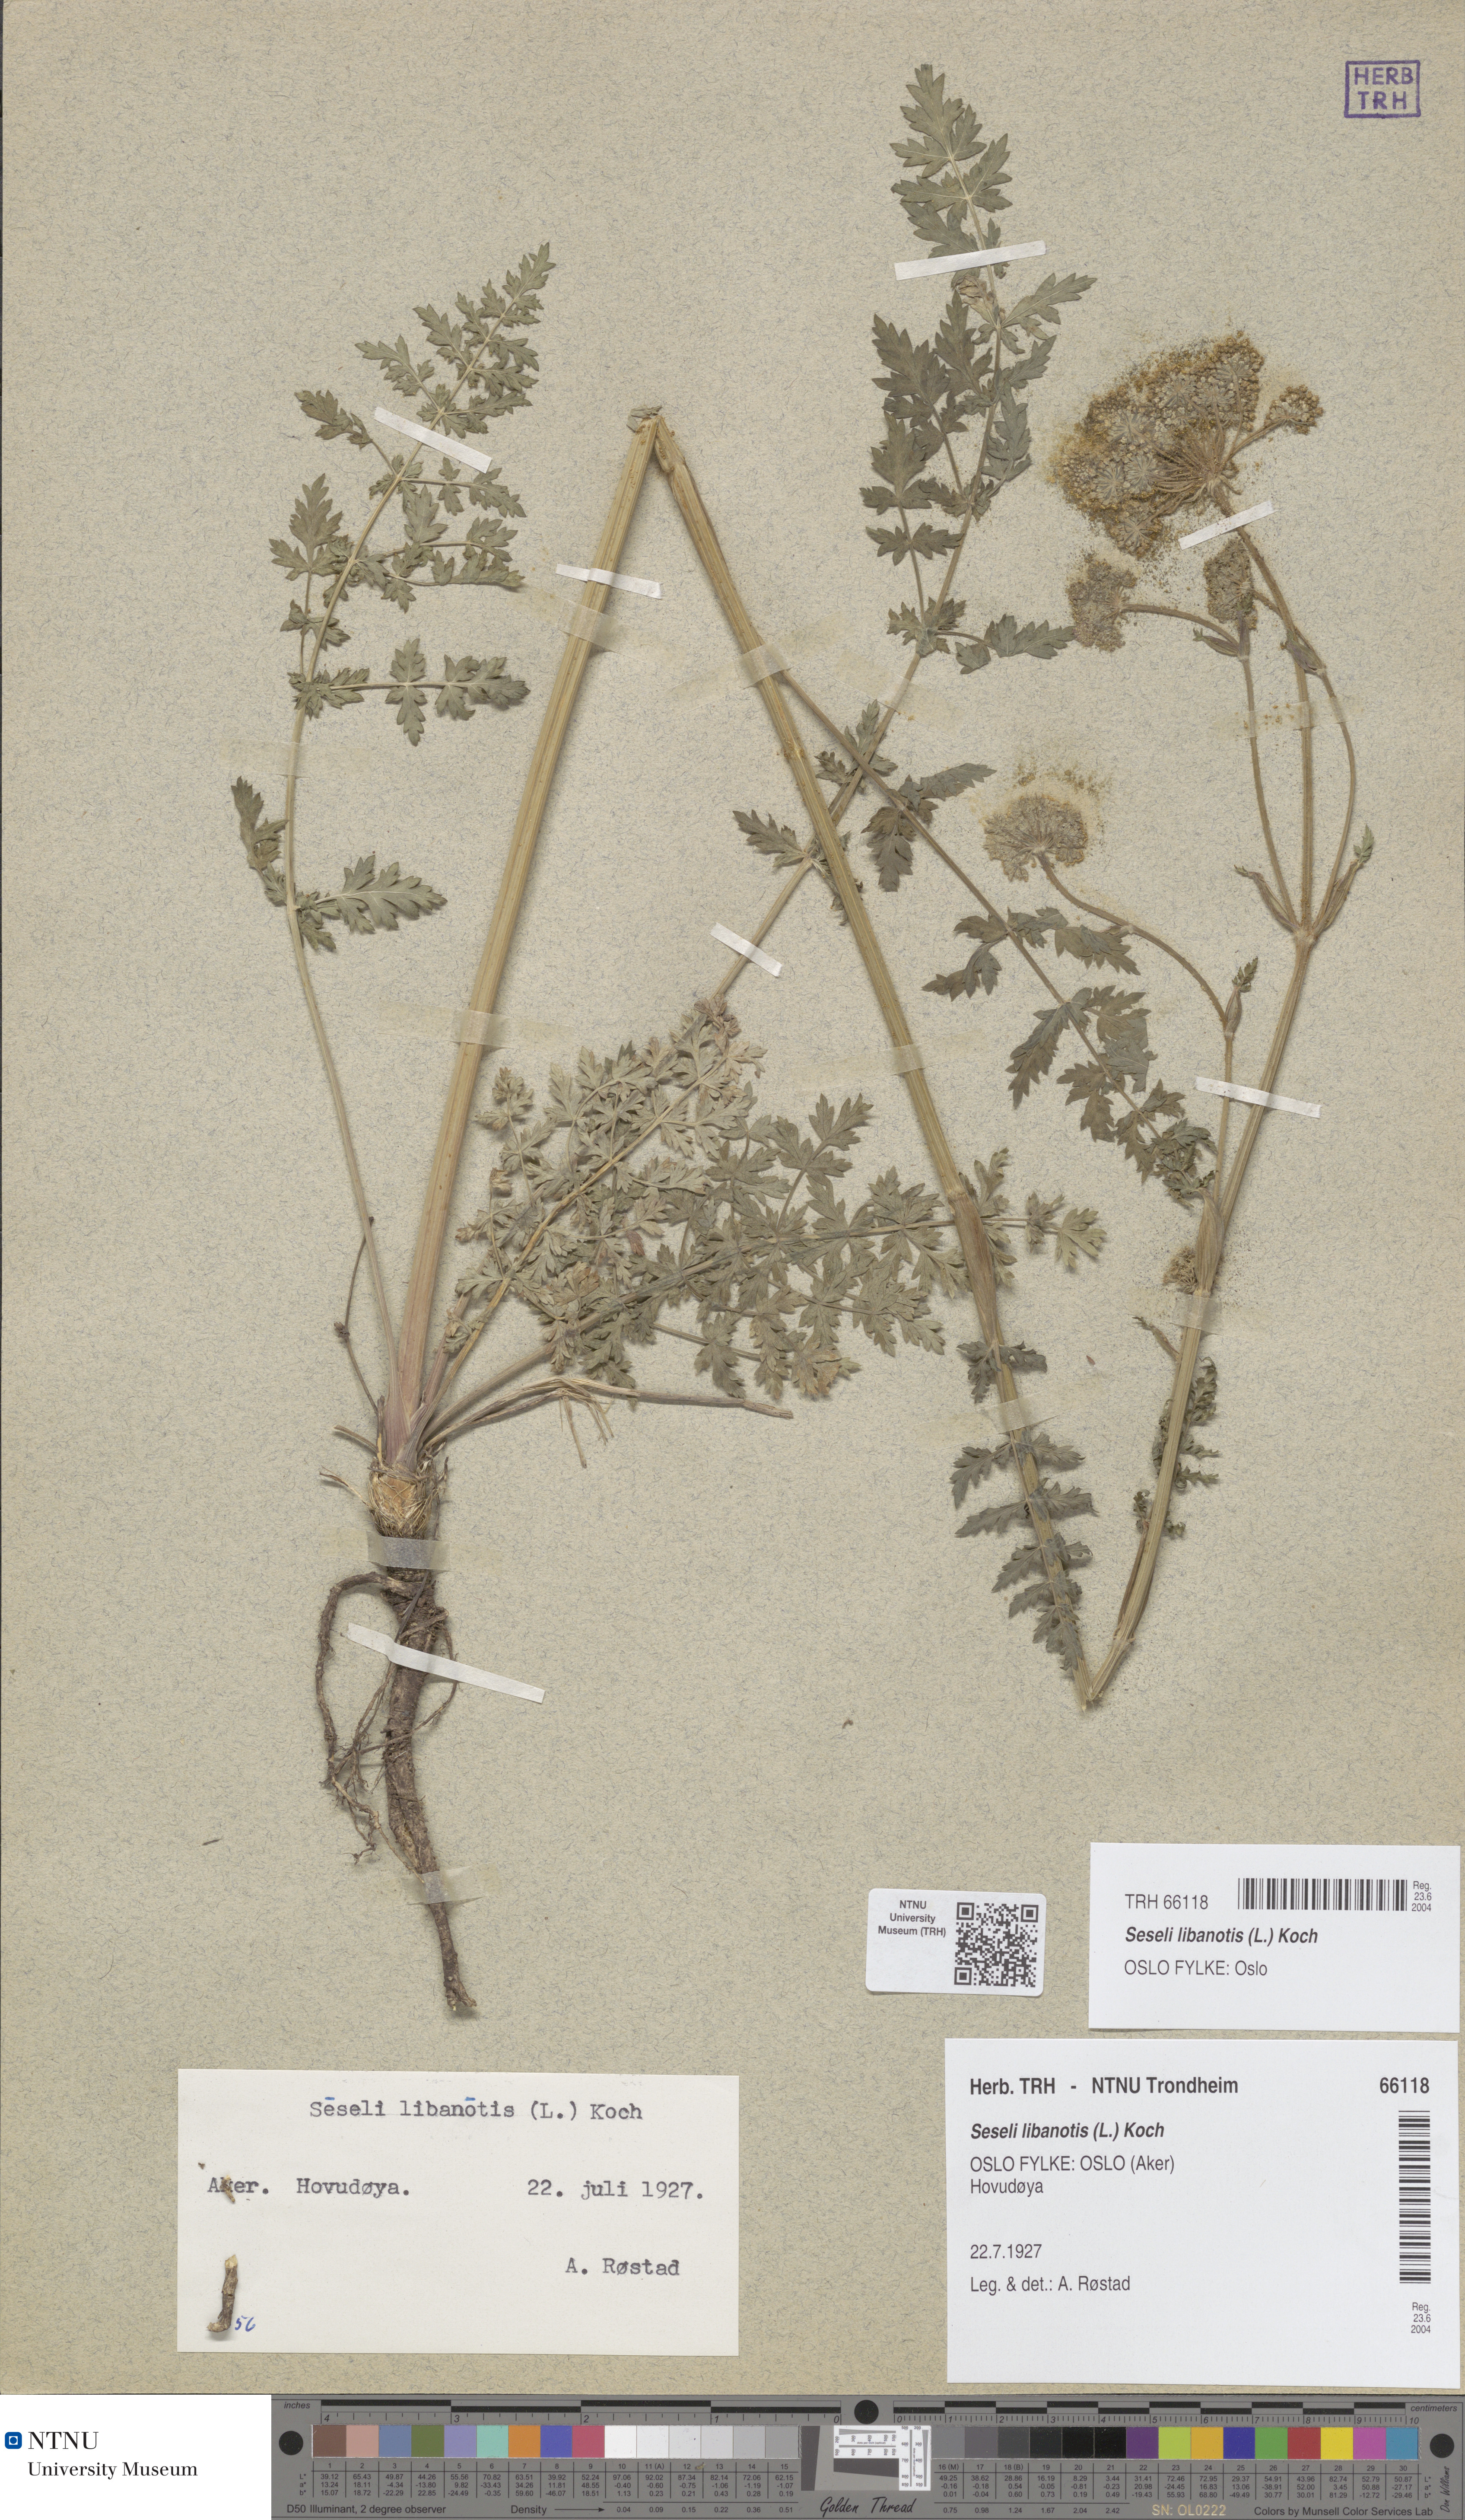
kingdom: Plantae
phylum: Tracheophyta
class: Magnoliopsida
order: Apiales
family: Apiaceae
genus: Seseli
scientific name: Seseli libanotis
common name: Mooncarrot
